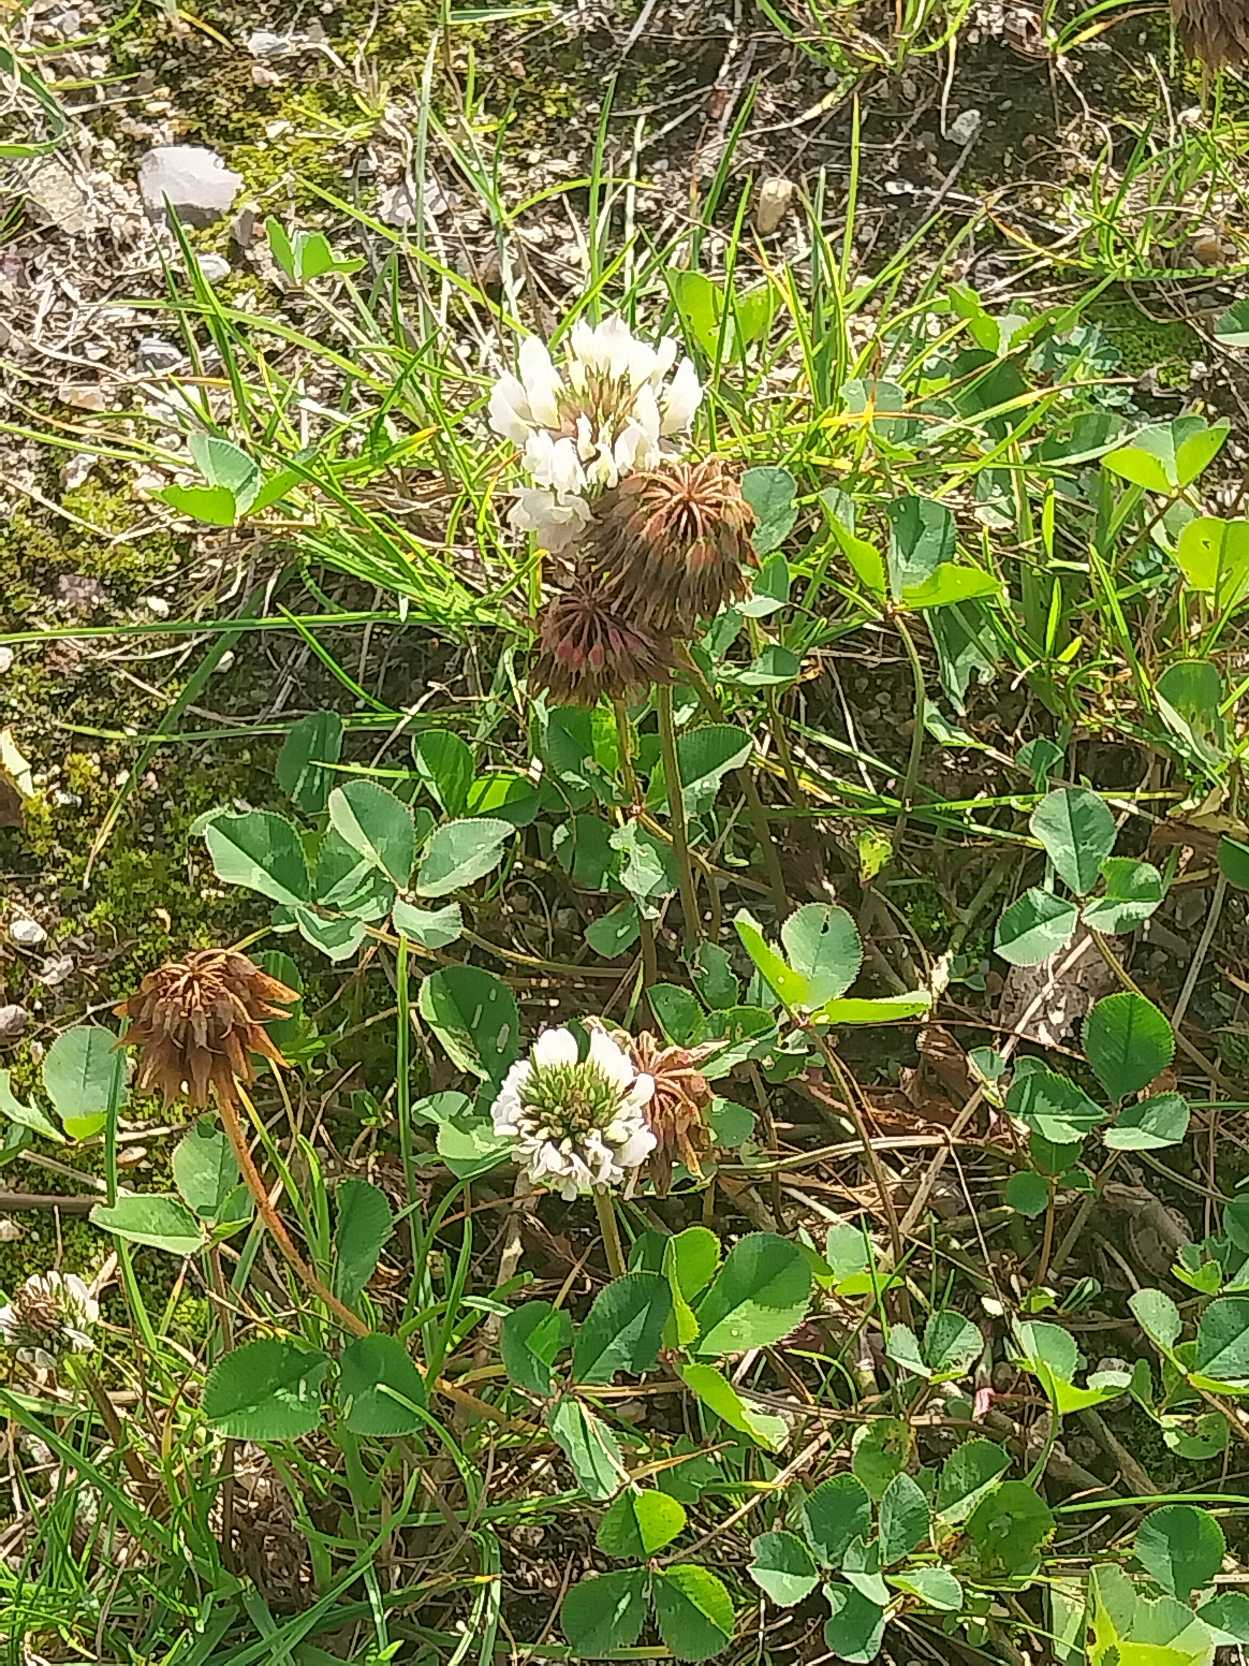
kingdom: Plantae
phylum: Tracheophyta
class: Magnoliopsida
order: Fabales
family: Fabaceae
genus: Trifolium
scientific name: Trifolium repens
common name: Hvid-kløver
